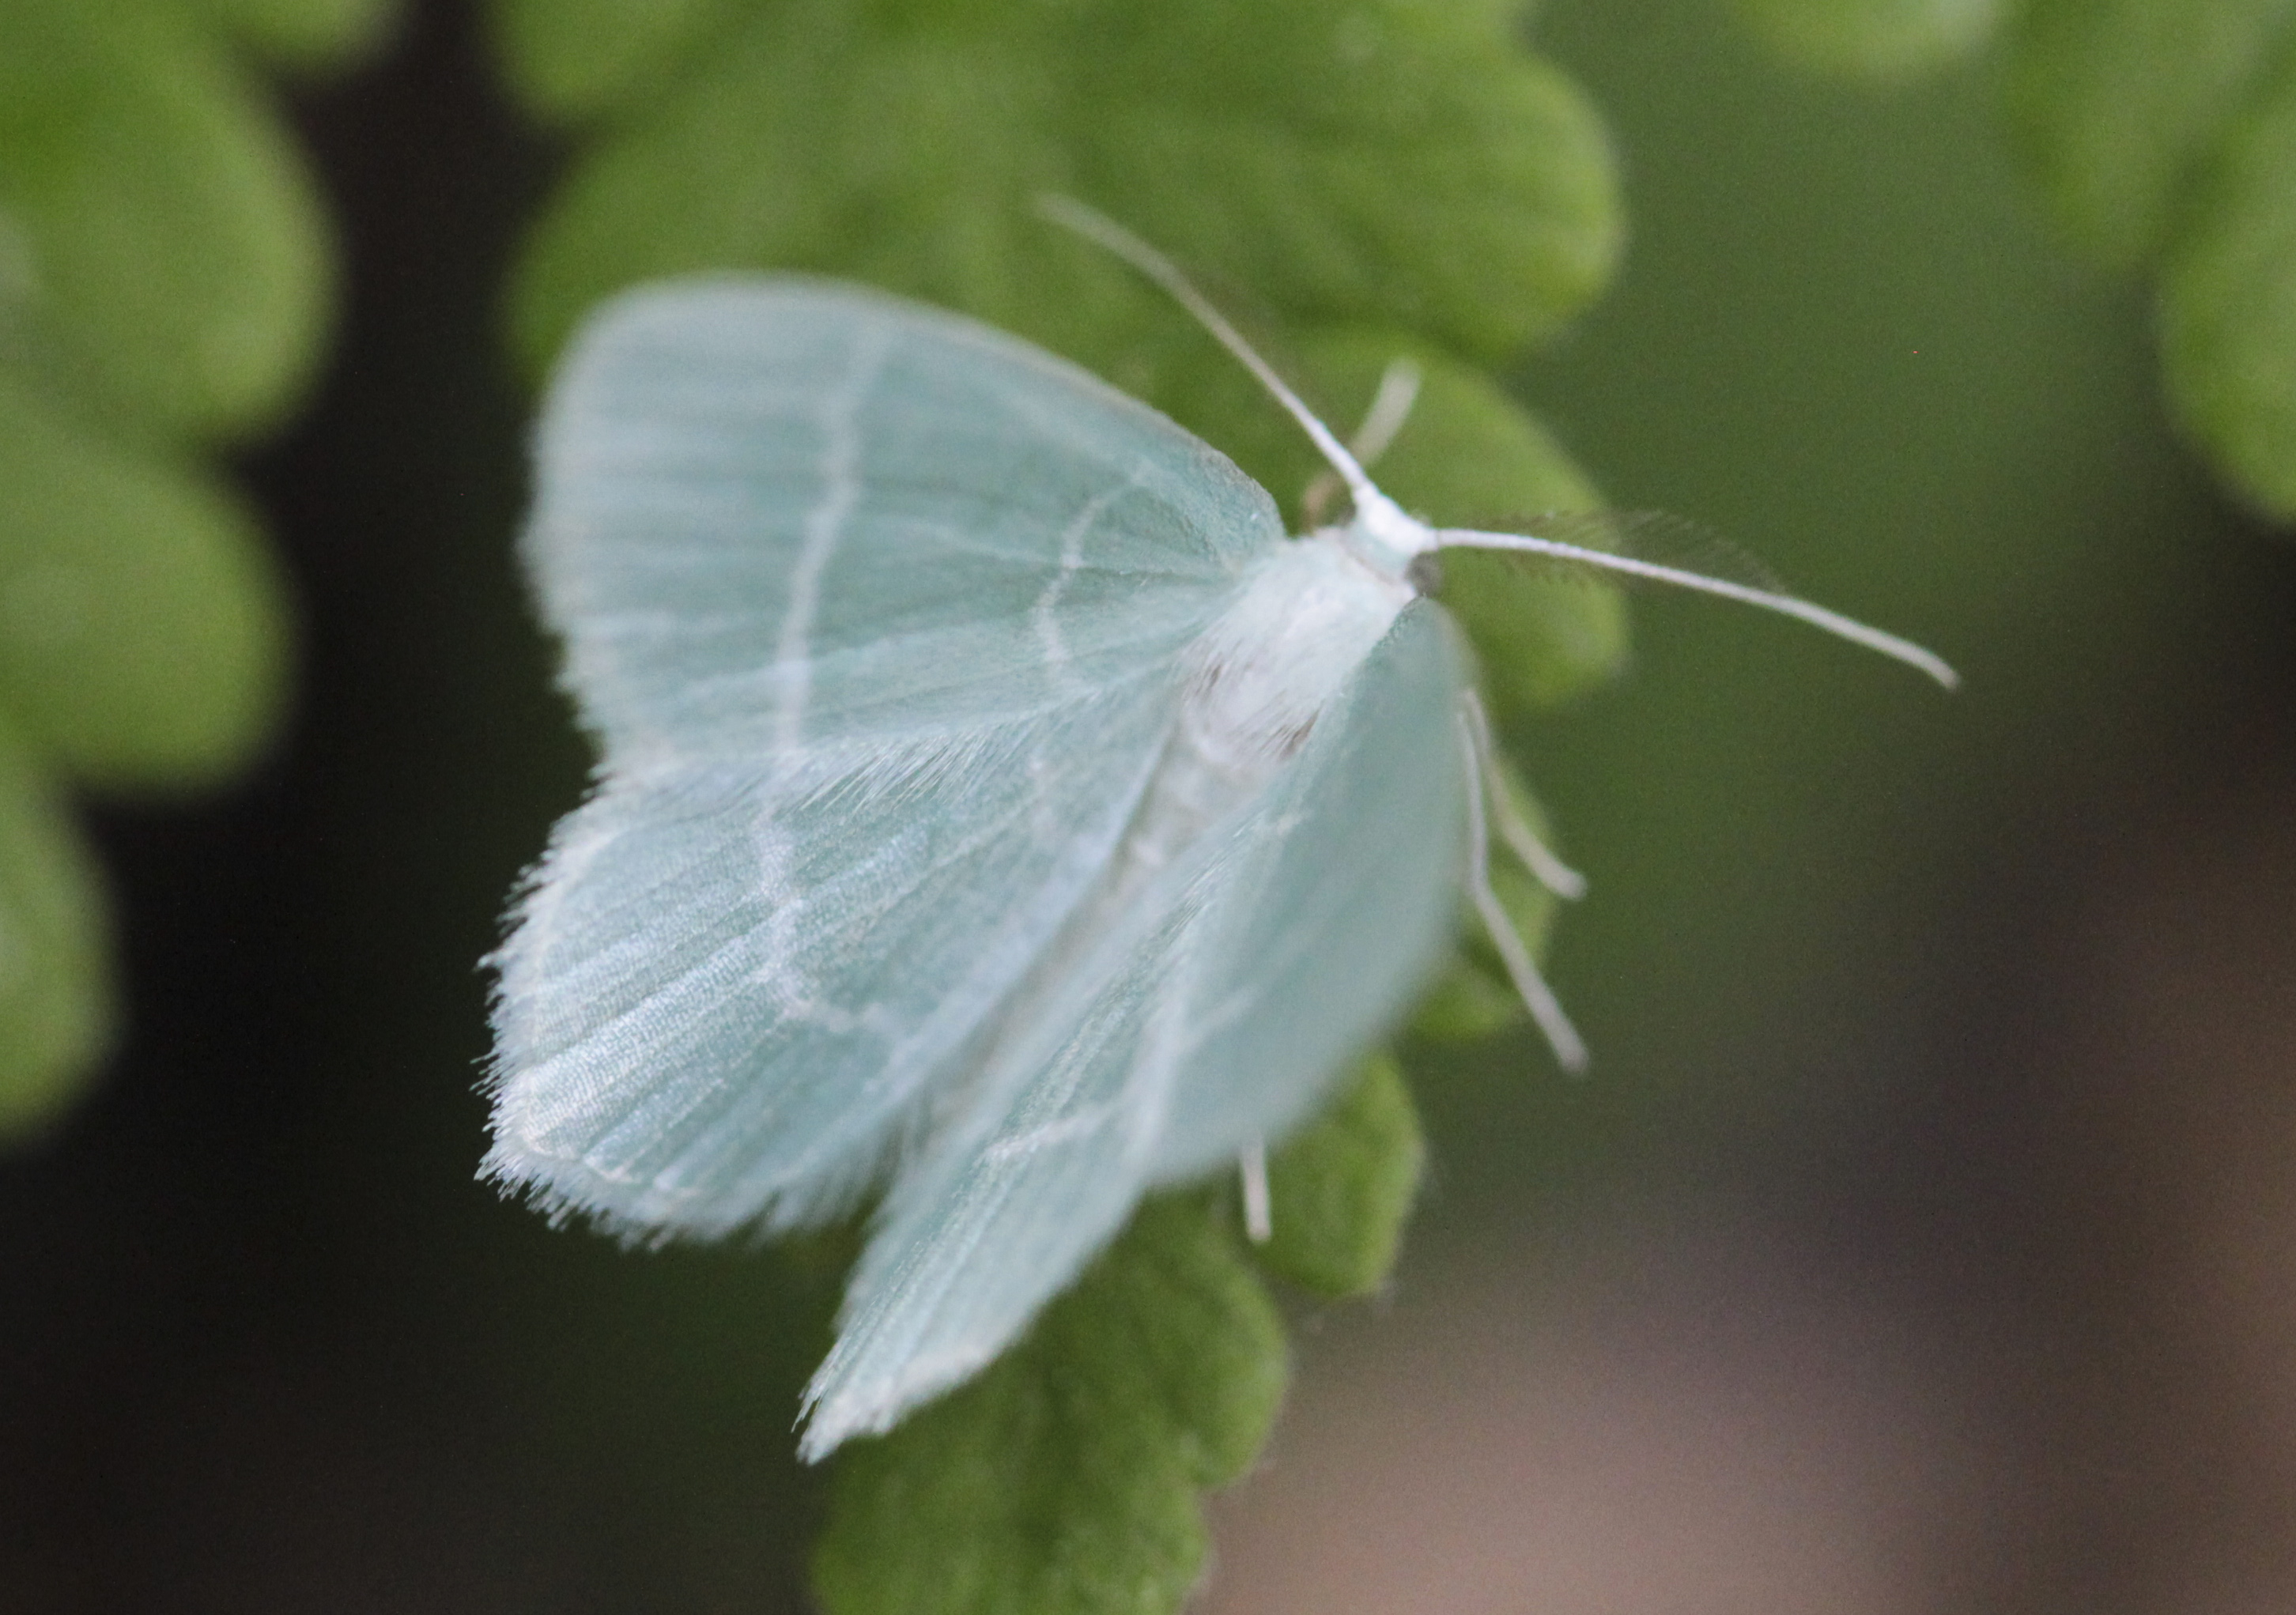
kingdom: Animalia
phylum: Arthropoda
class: Insecta
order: Lepidoptera
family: Geometridae
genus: Jodis
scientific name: Jodis lactearia
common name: Little emerald
